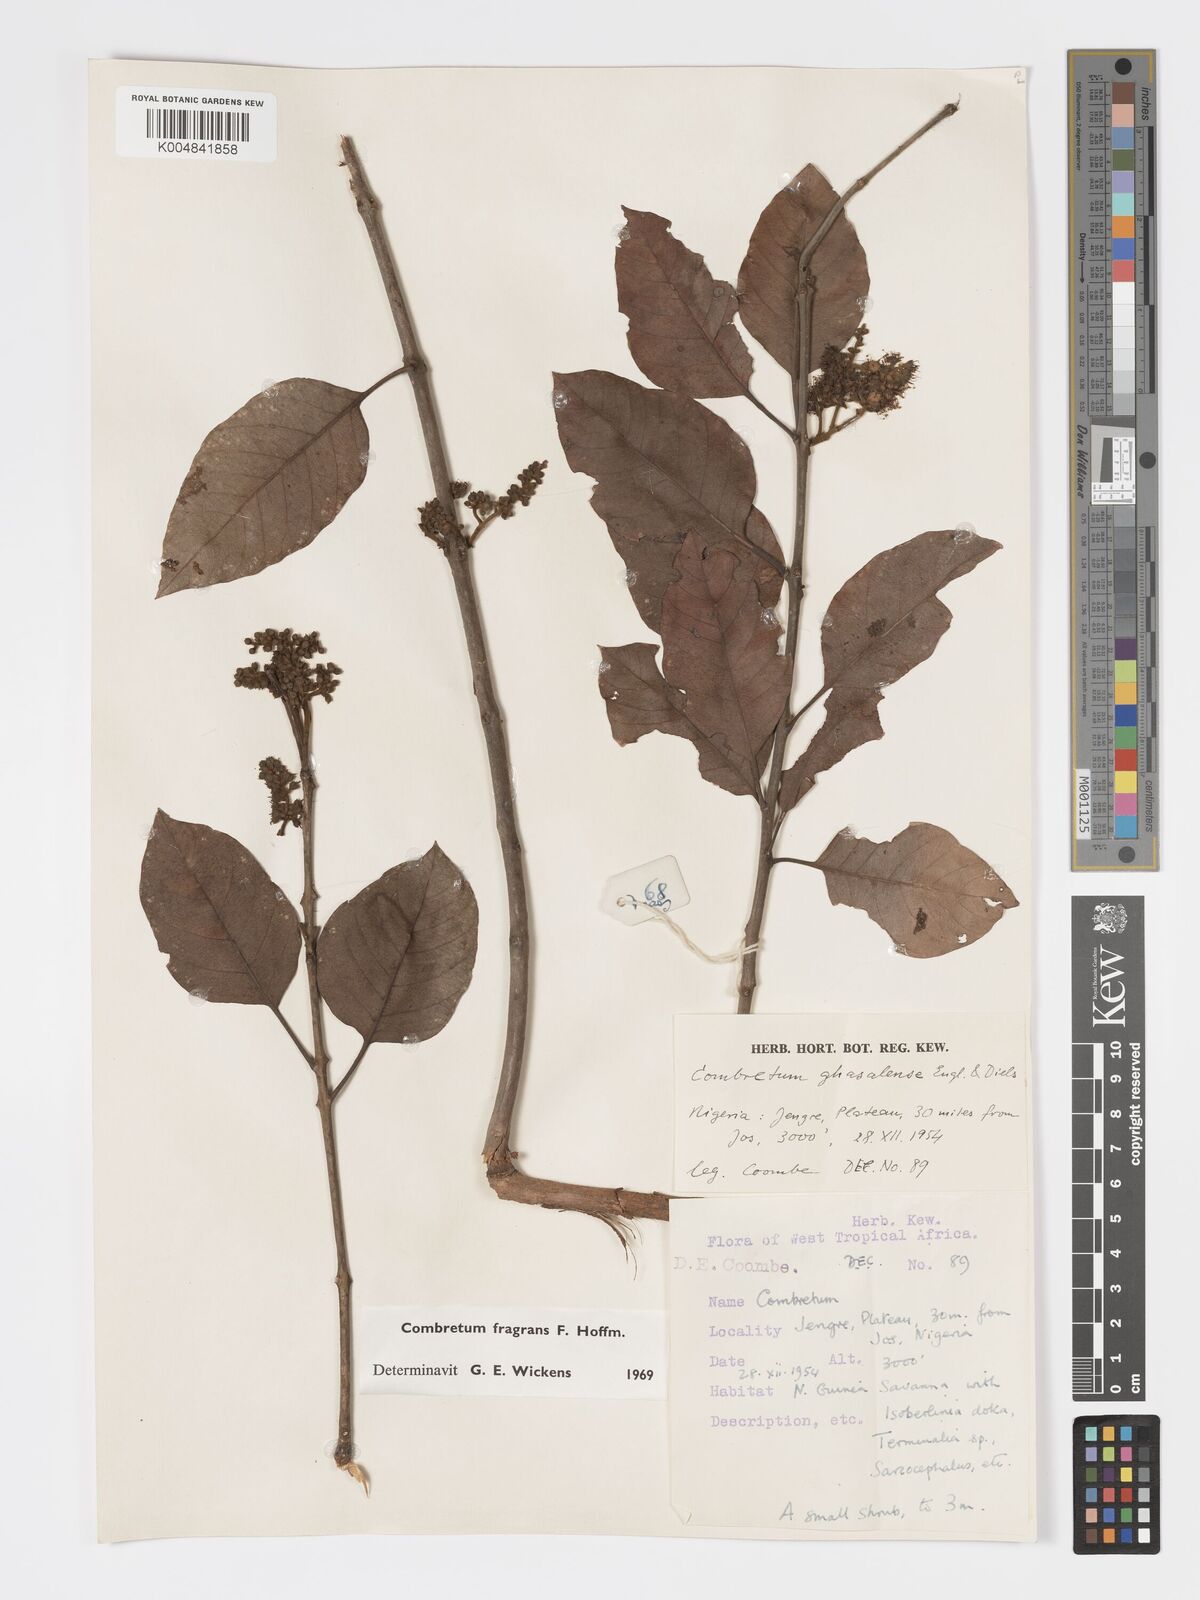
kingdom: Plantae
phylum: Tracheophyta
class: Magnoliopsida
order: Myrtales
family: Combretaceae
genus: Combretum
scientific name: Combretum adenogonium
